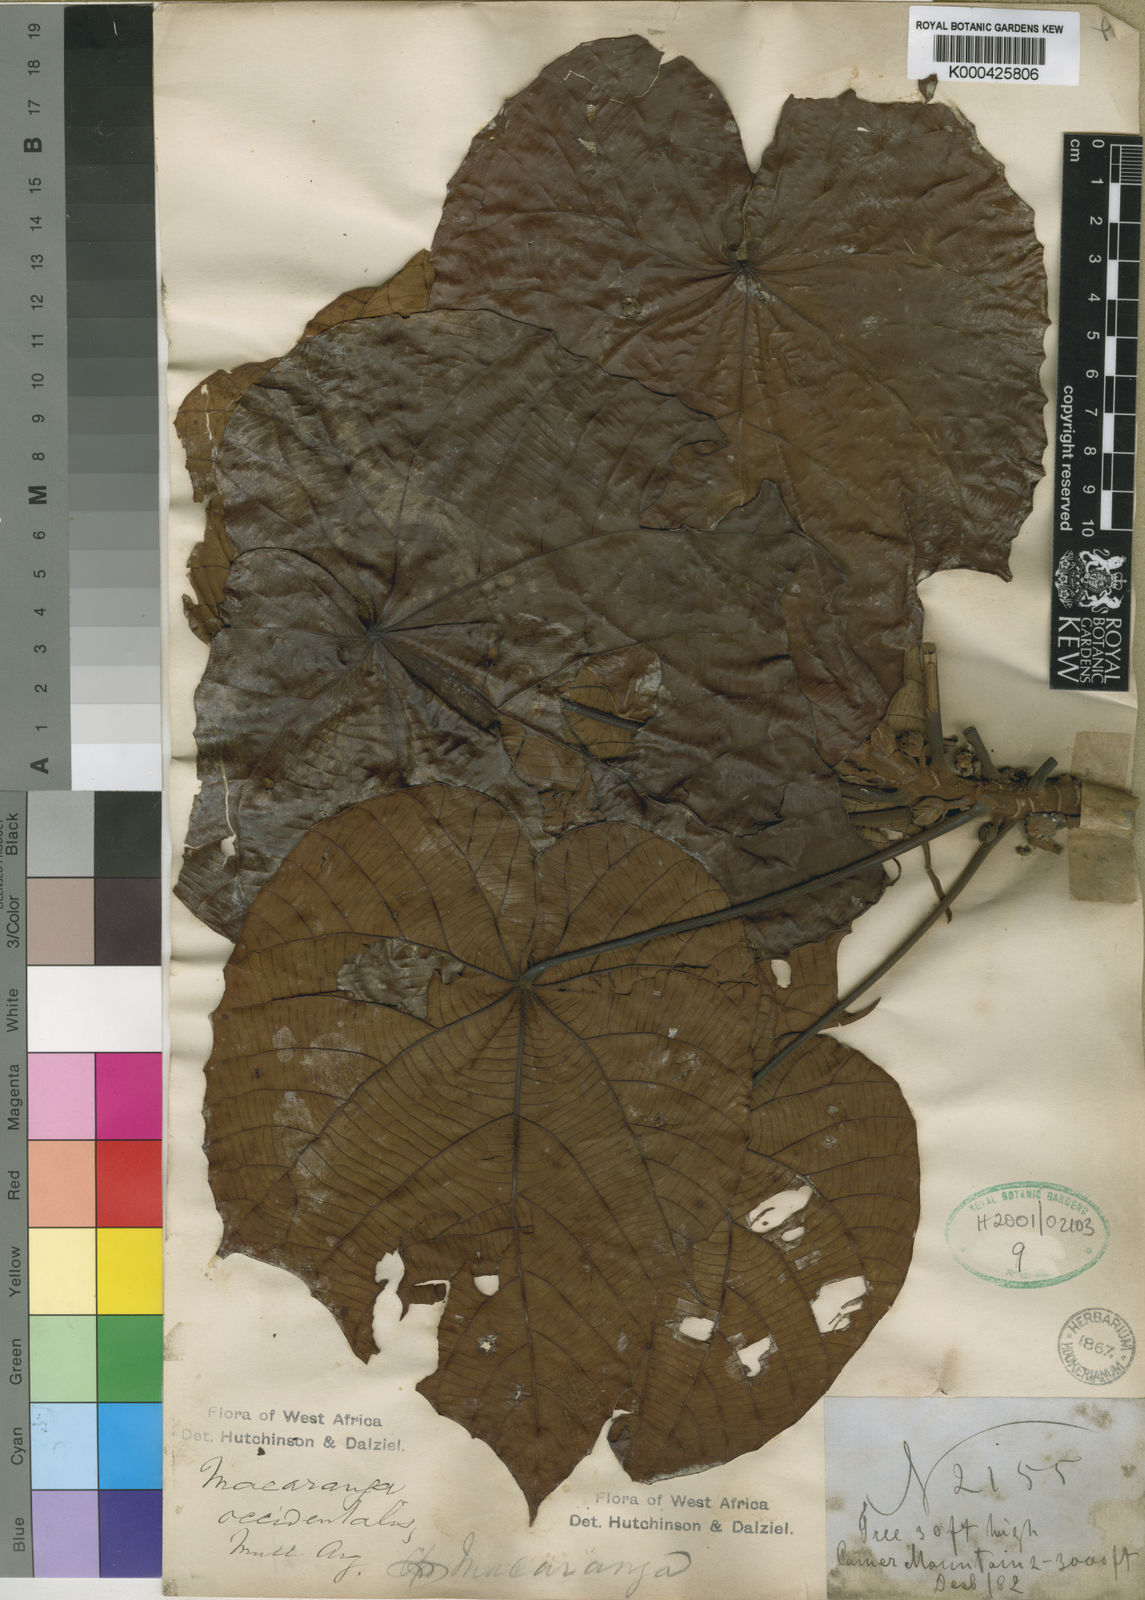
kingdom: Plantae
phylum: Tracheophyta
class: Magnoliopsida
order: Malpighiales
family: Euphorbiaceae
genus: Macaranga
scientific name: Macaranga
